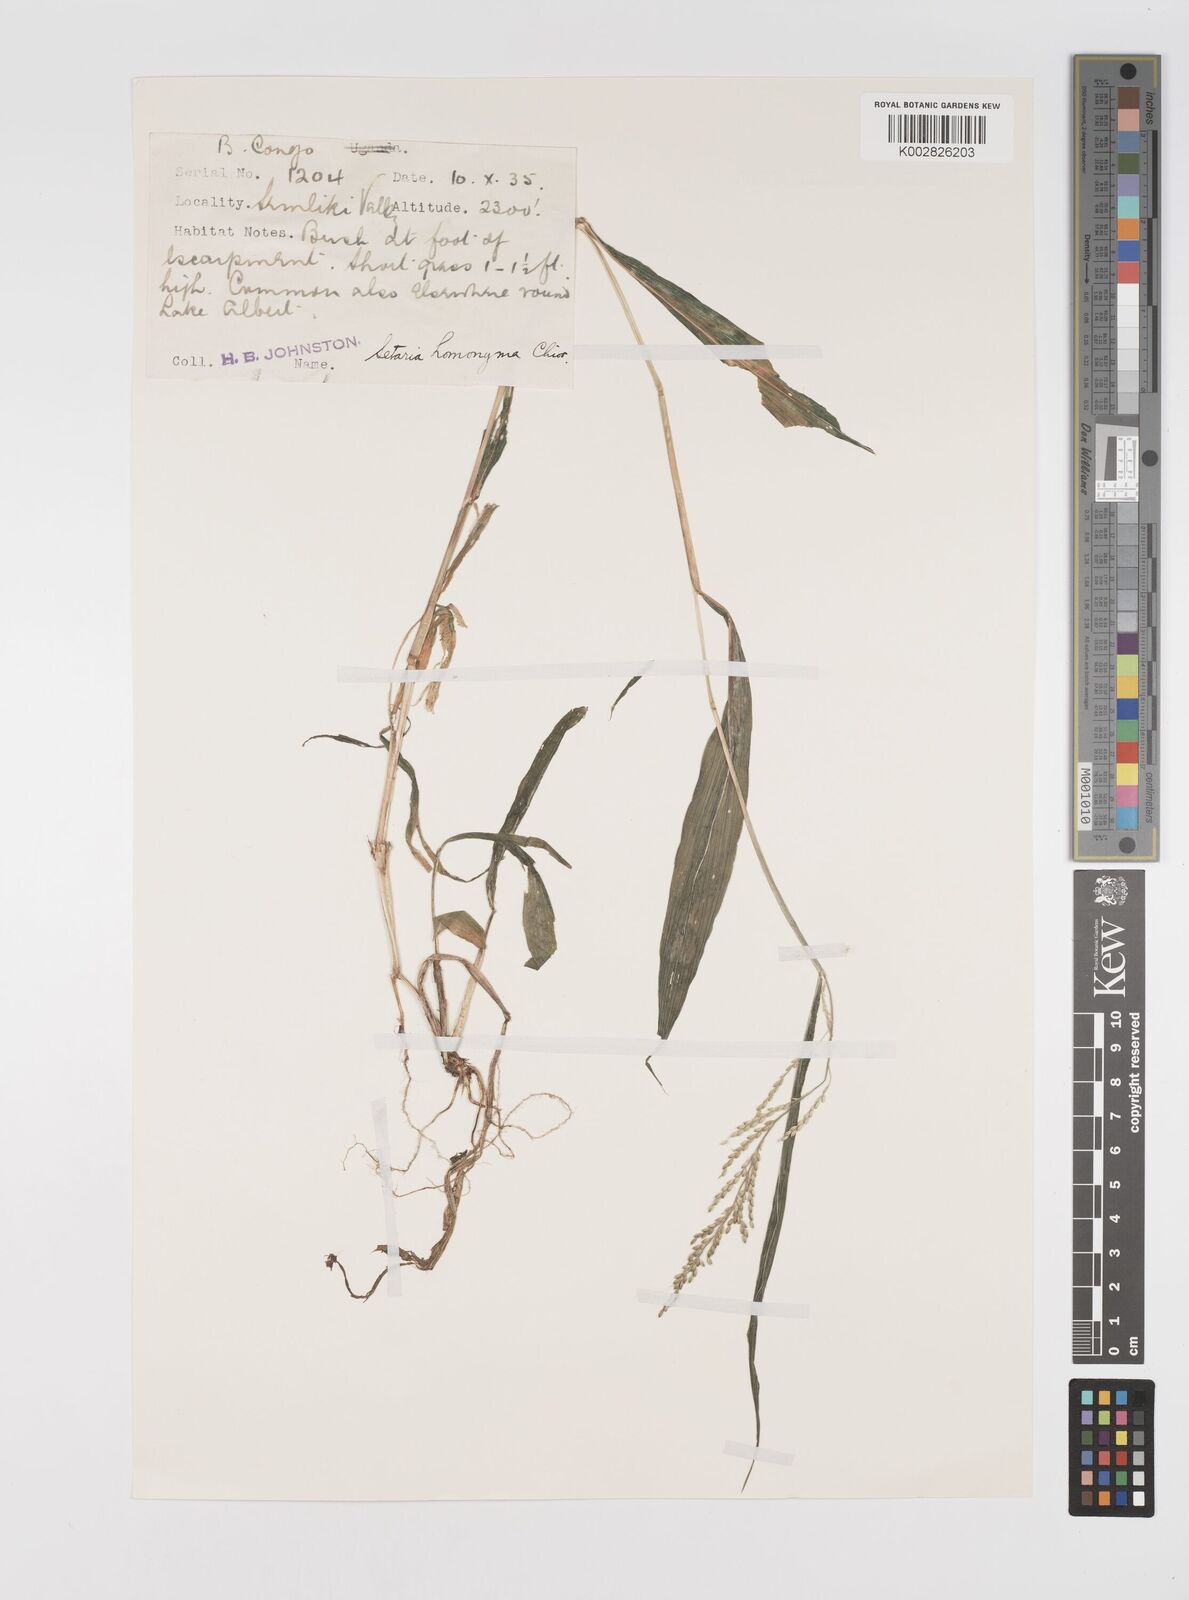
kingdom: Plantae
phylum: Tracheophyta
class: Liliopsida
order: Poales
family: Poaceae
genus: Setaria
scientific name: Setaria homonyma
